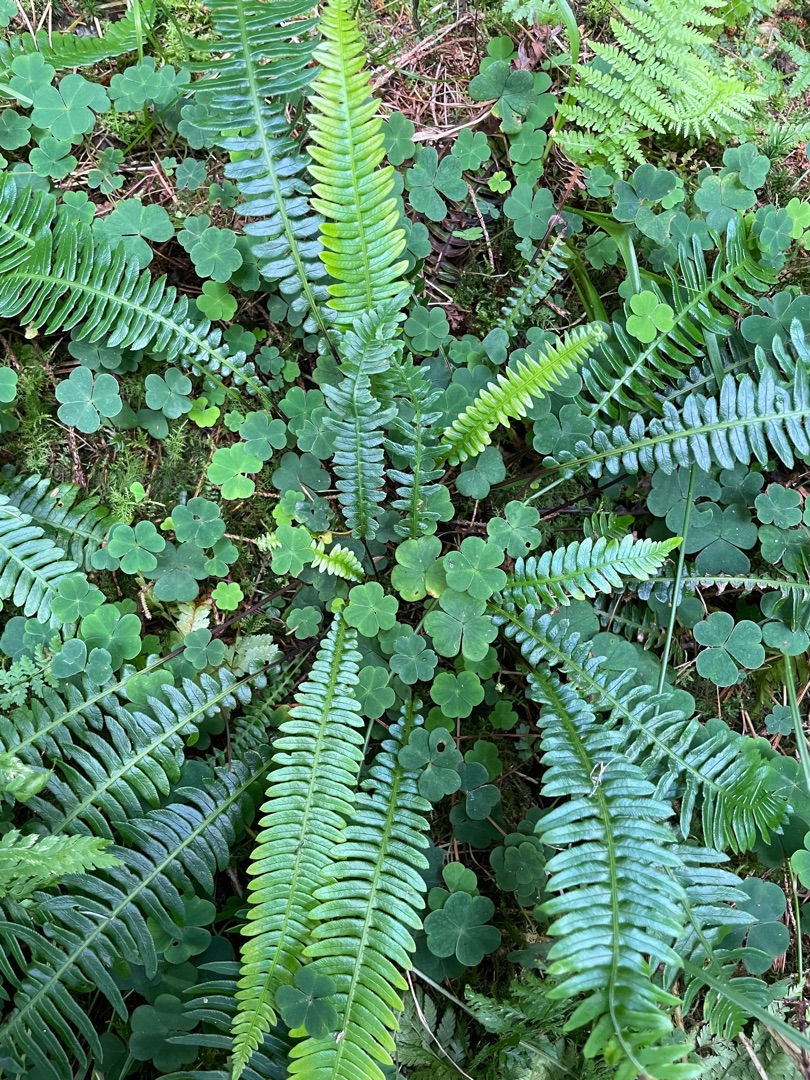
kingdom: Plantae
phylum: Tracheophyta
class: Polypodiopsida
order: Polypodiales
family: Blechnaceae
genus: Struthiopteris
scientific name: Struthiopteris spicant
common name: Kambregne
